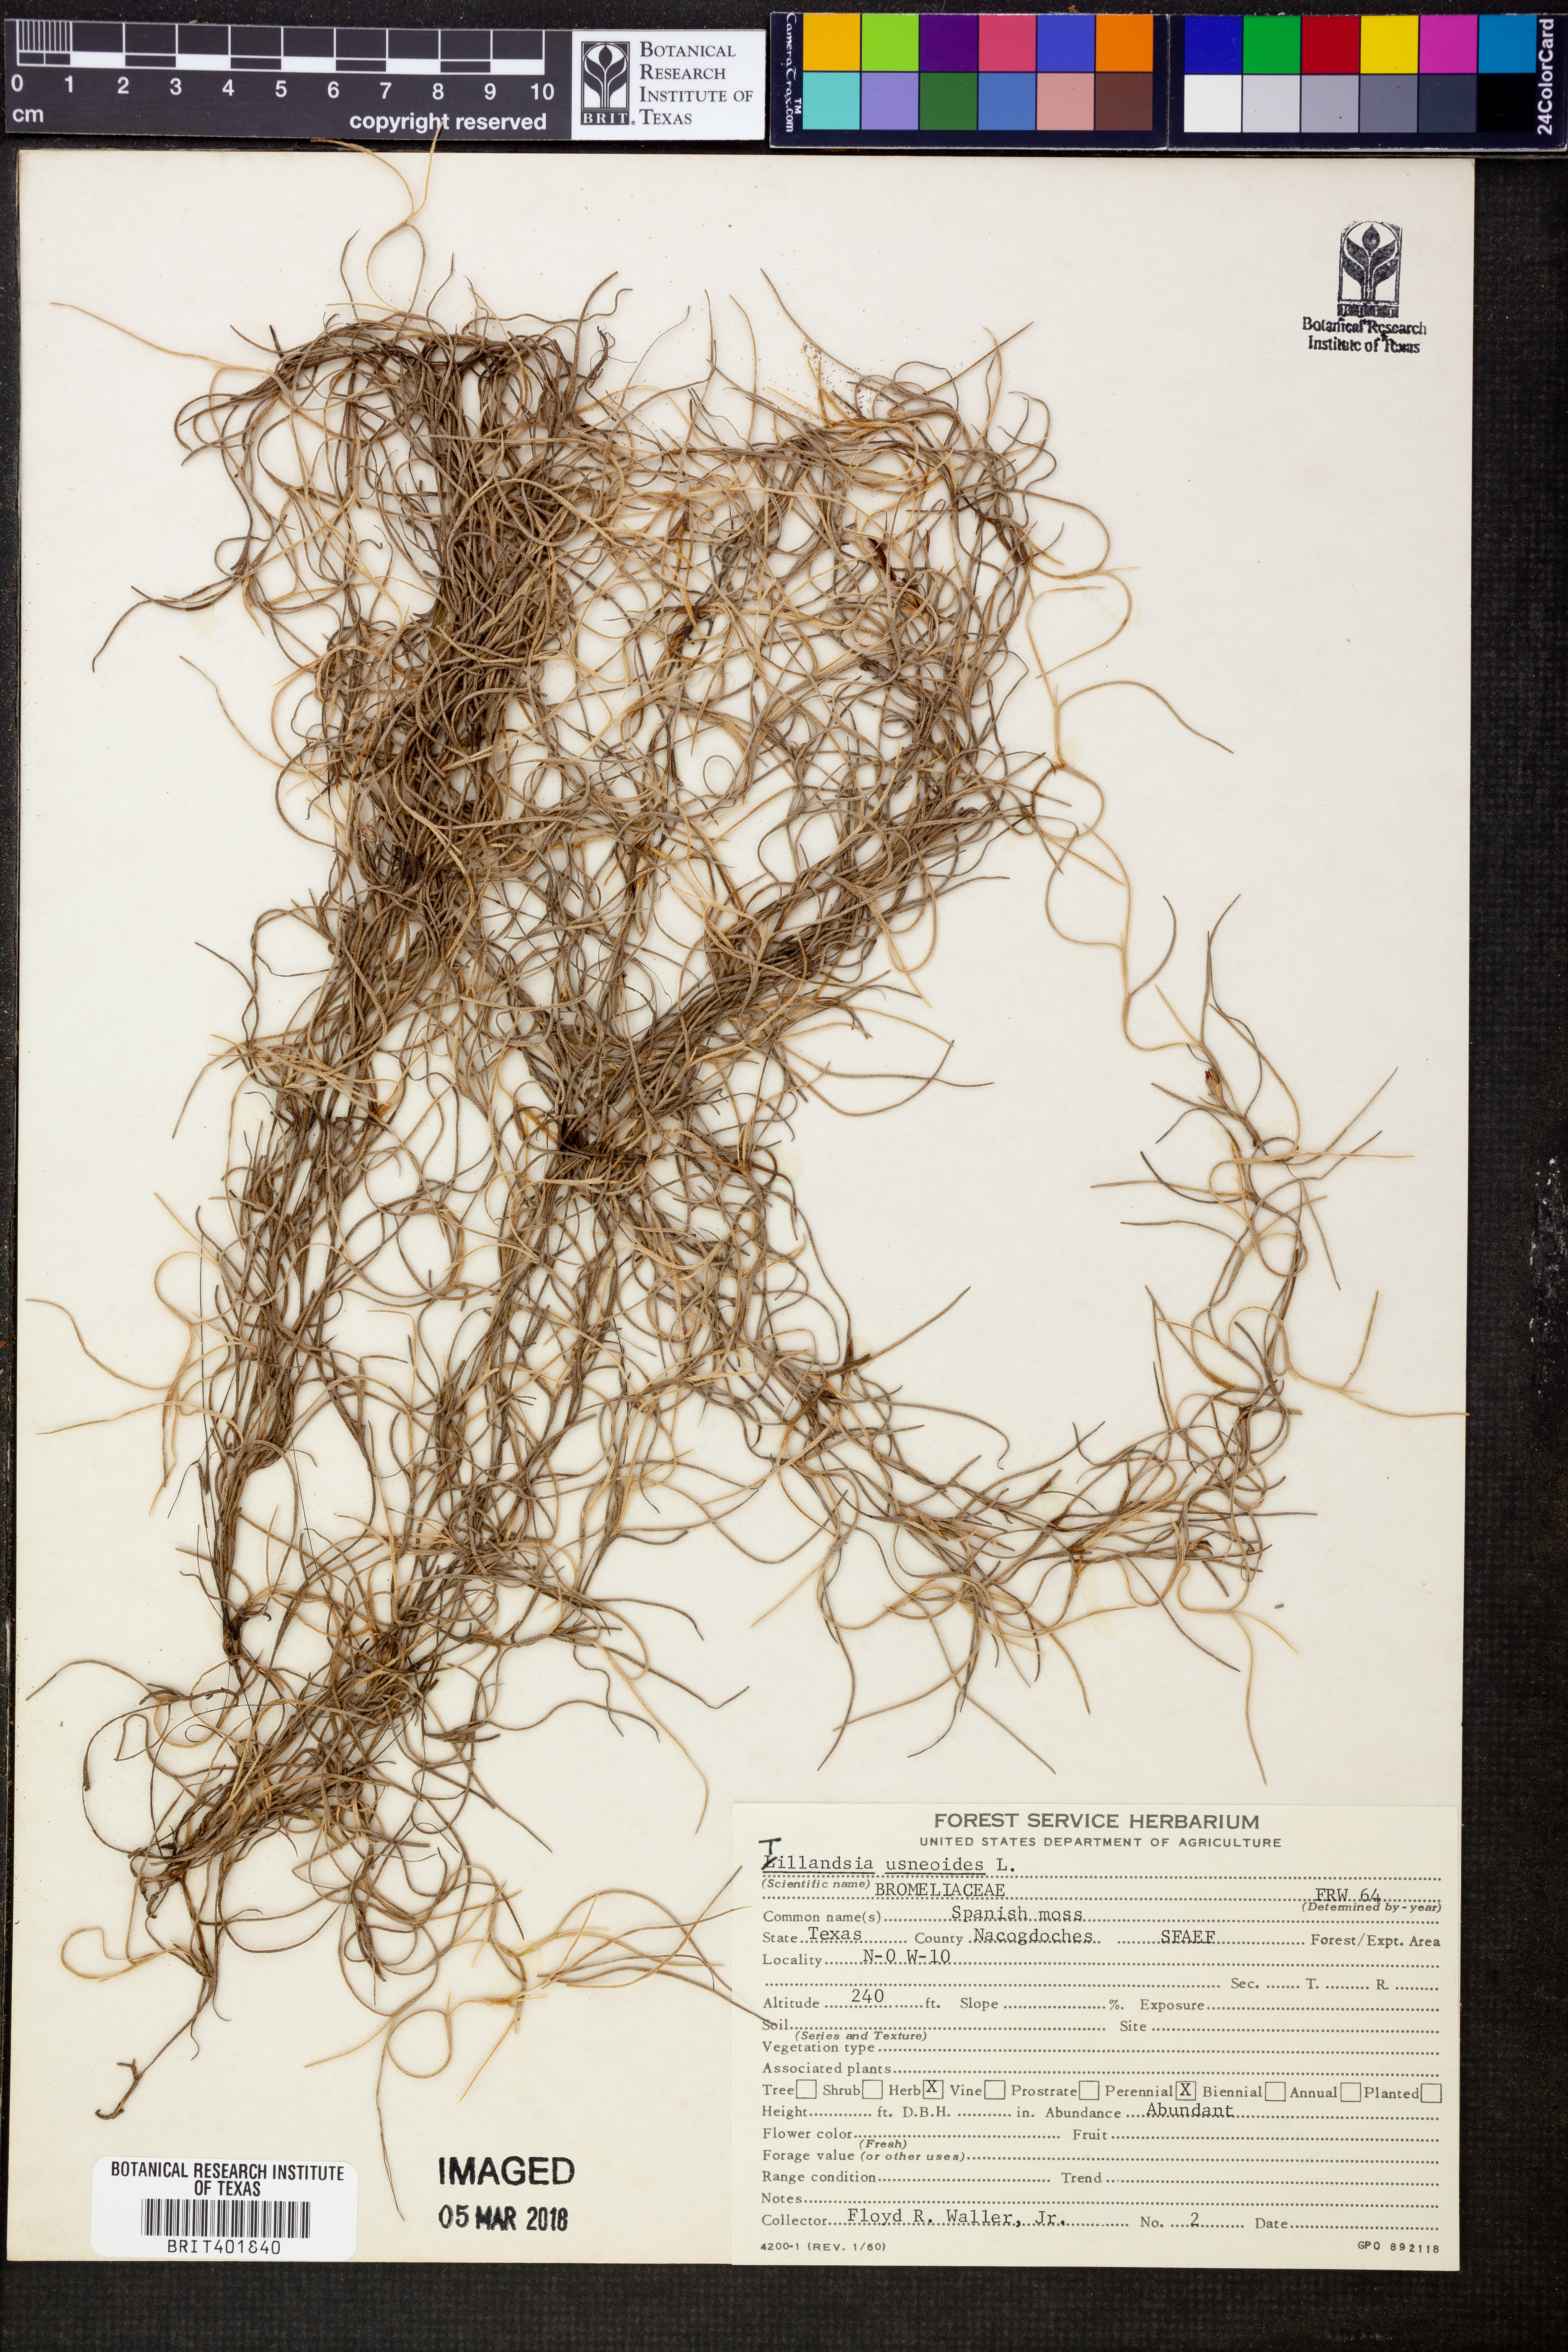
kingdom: Plantae
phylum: Tracheophyta
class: Liliopsida
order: Poales
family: Bromeliaceae
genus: Tillandsia
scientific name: Tillandsia usneoides
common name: Spanish moss
